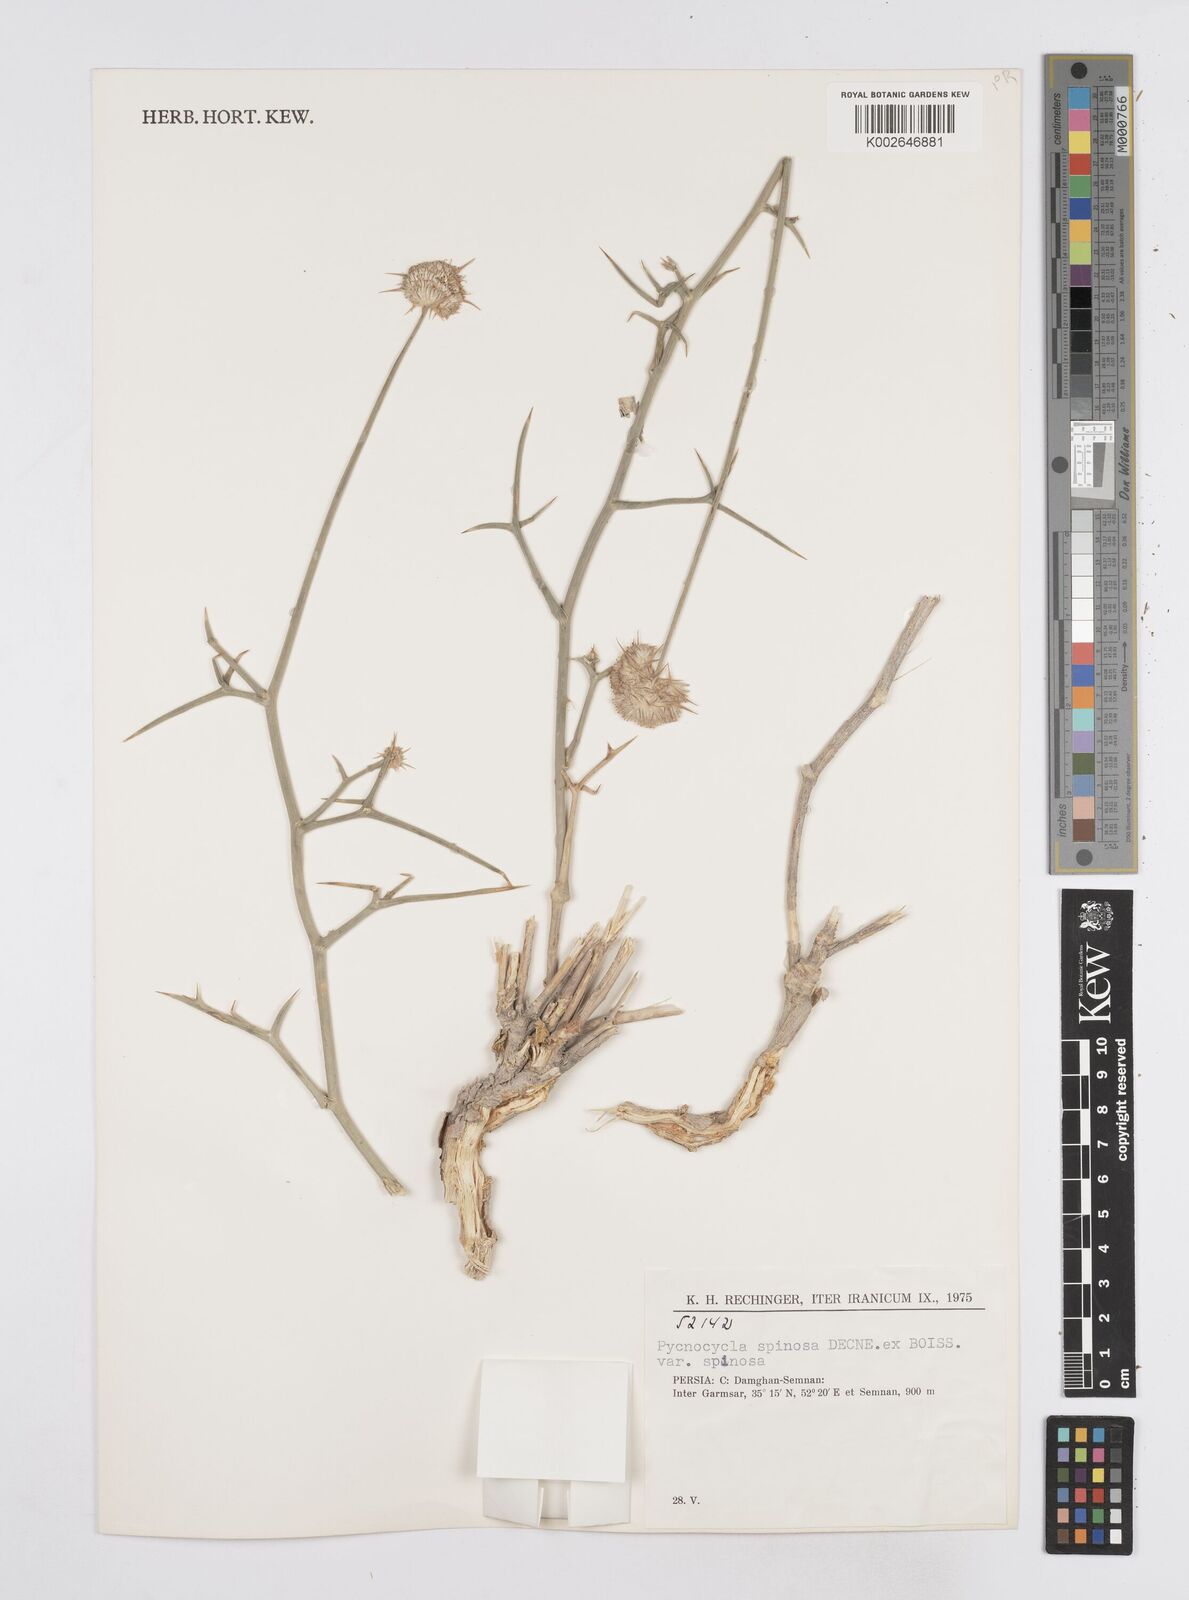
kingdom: Plantae
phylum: Tracheophyta
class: Magnoliopsida
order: Apiales
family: Apiaceae
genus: Pycnocycla
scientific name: Pycnocycla spinosa
